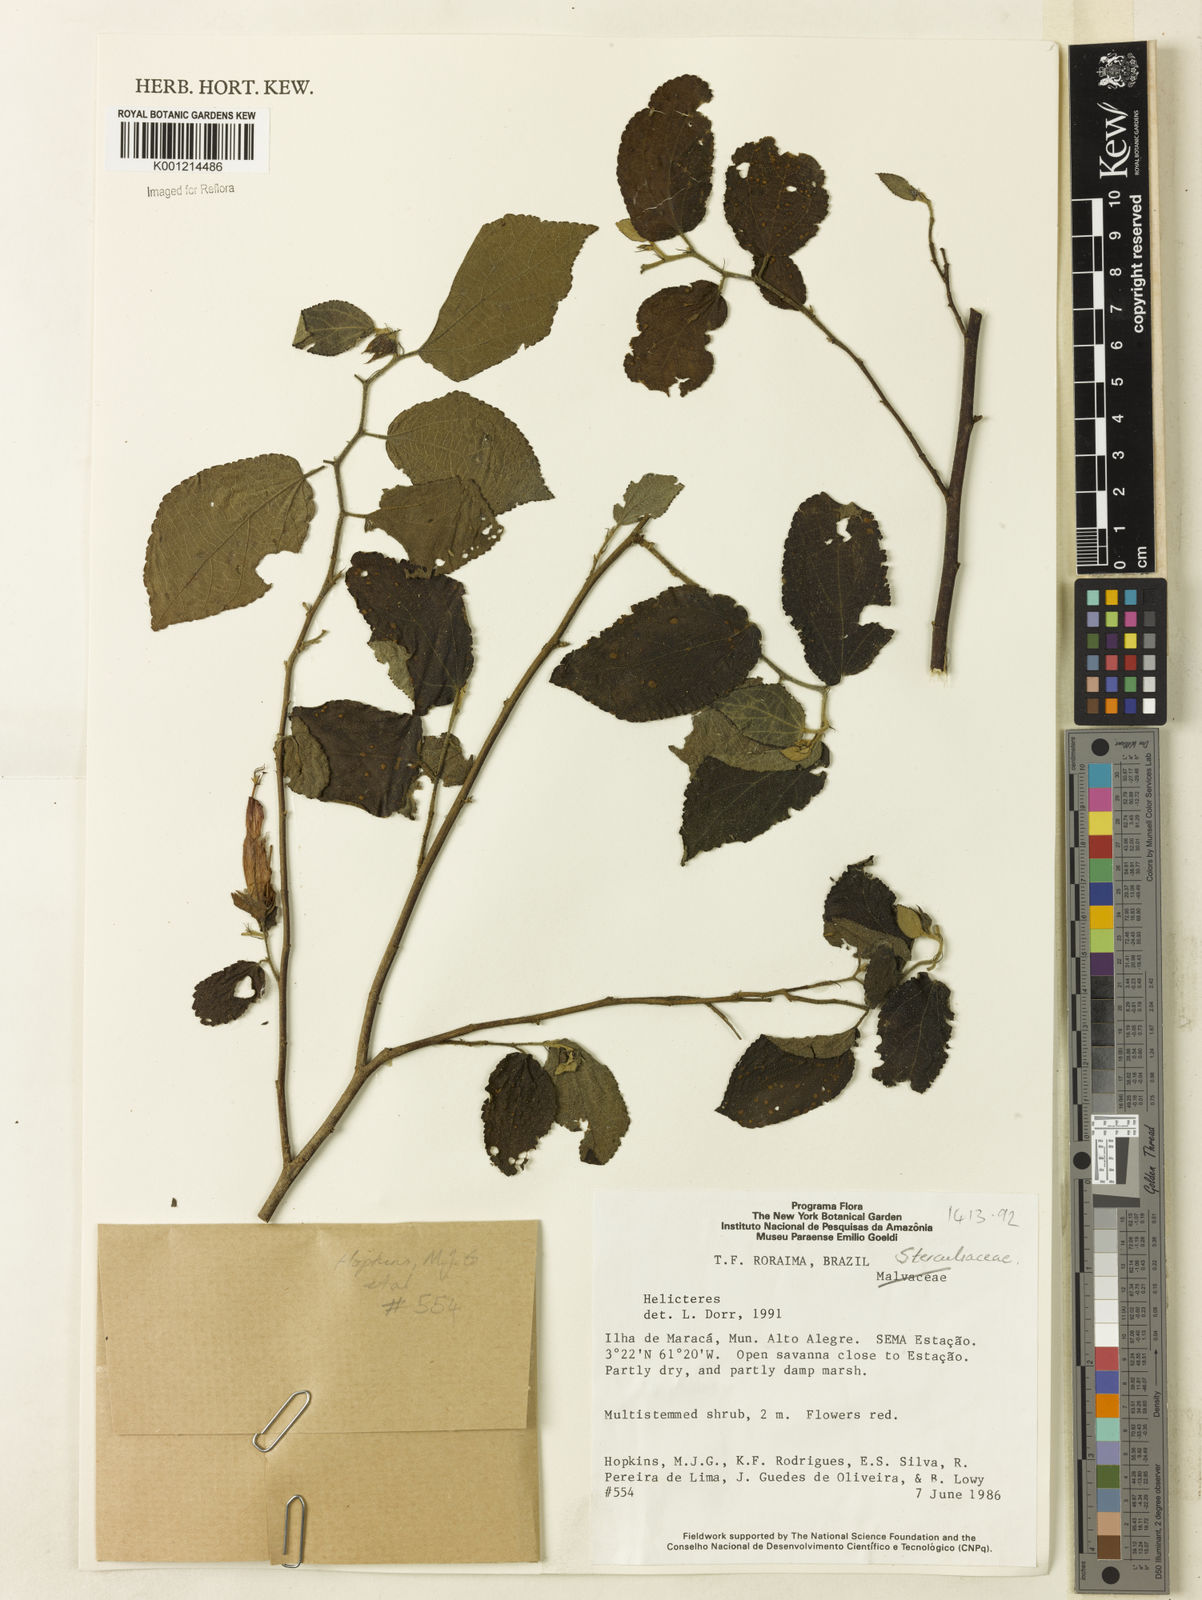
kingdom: Plantae
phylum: Tracheophyta
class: Magnoliopsida
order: Malvales
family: Malvaceae
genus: Helicteres
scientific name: Helicteres
